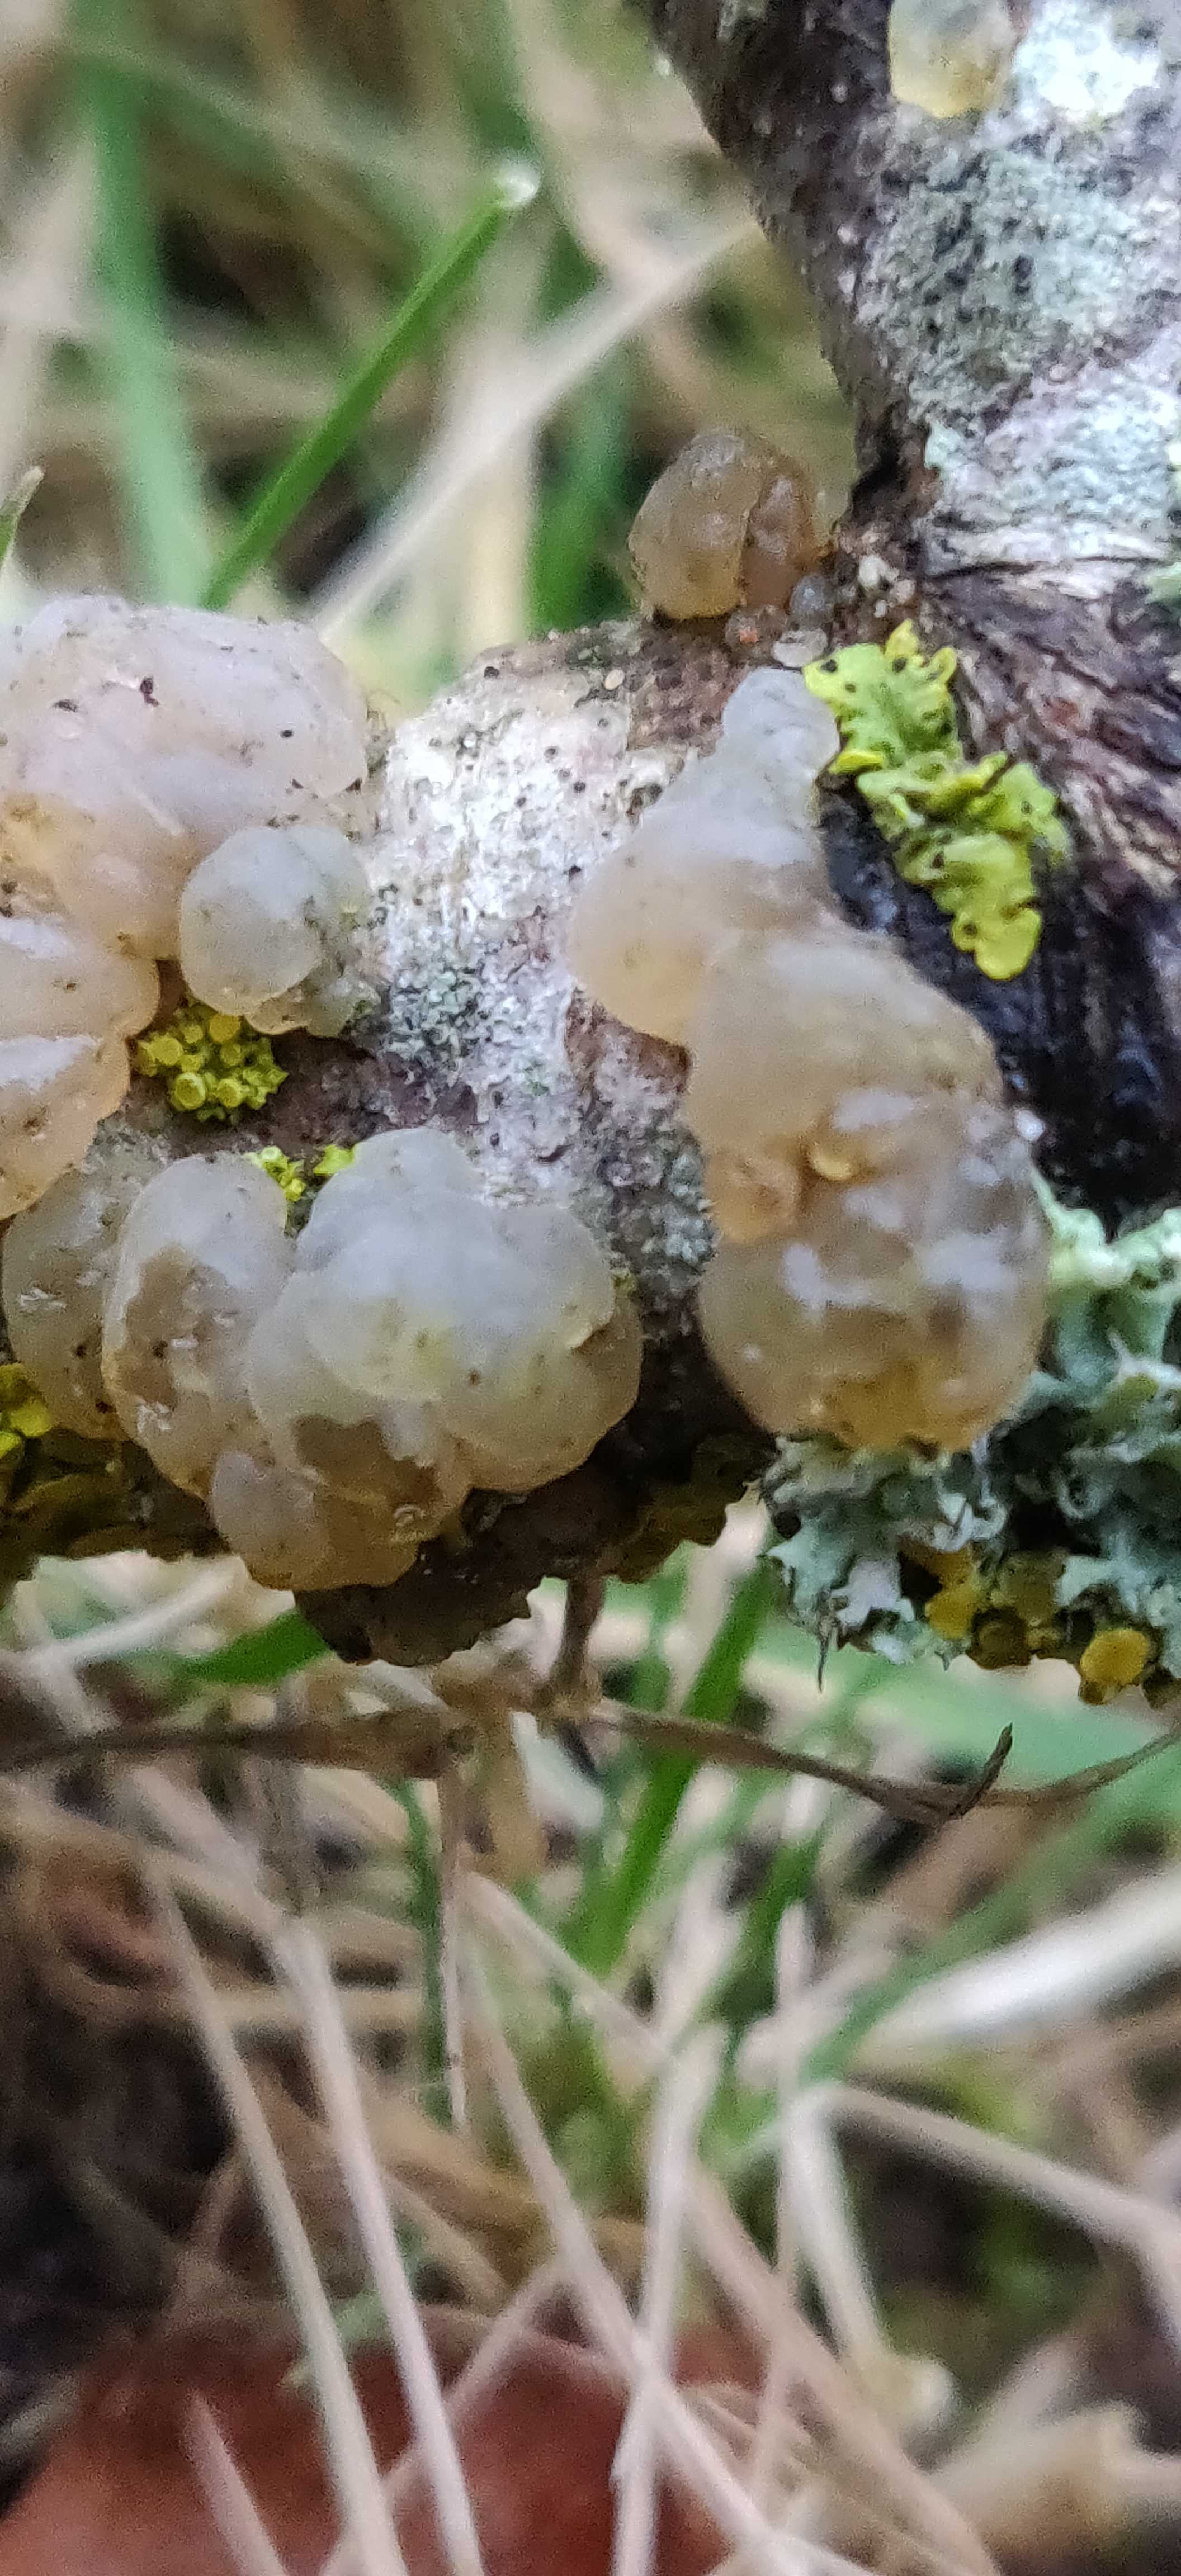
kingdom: Fungi
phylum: Basidiomycota
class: Agaricomycetes
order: Auriculariales
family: Hyaloriaceae
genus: Myxarium
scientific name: Myxarium nucleatum
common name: klar bævretop
